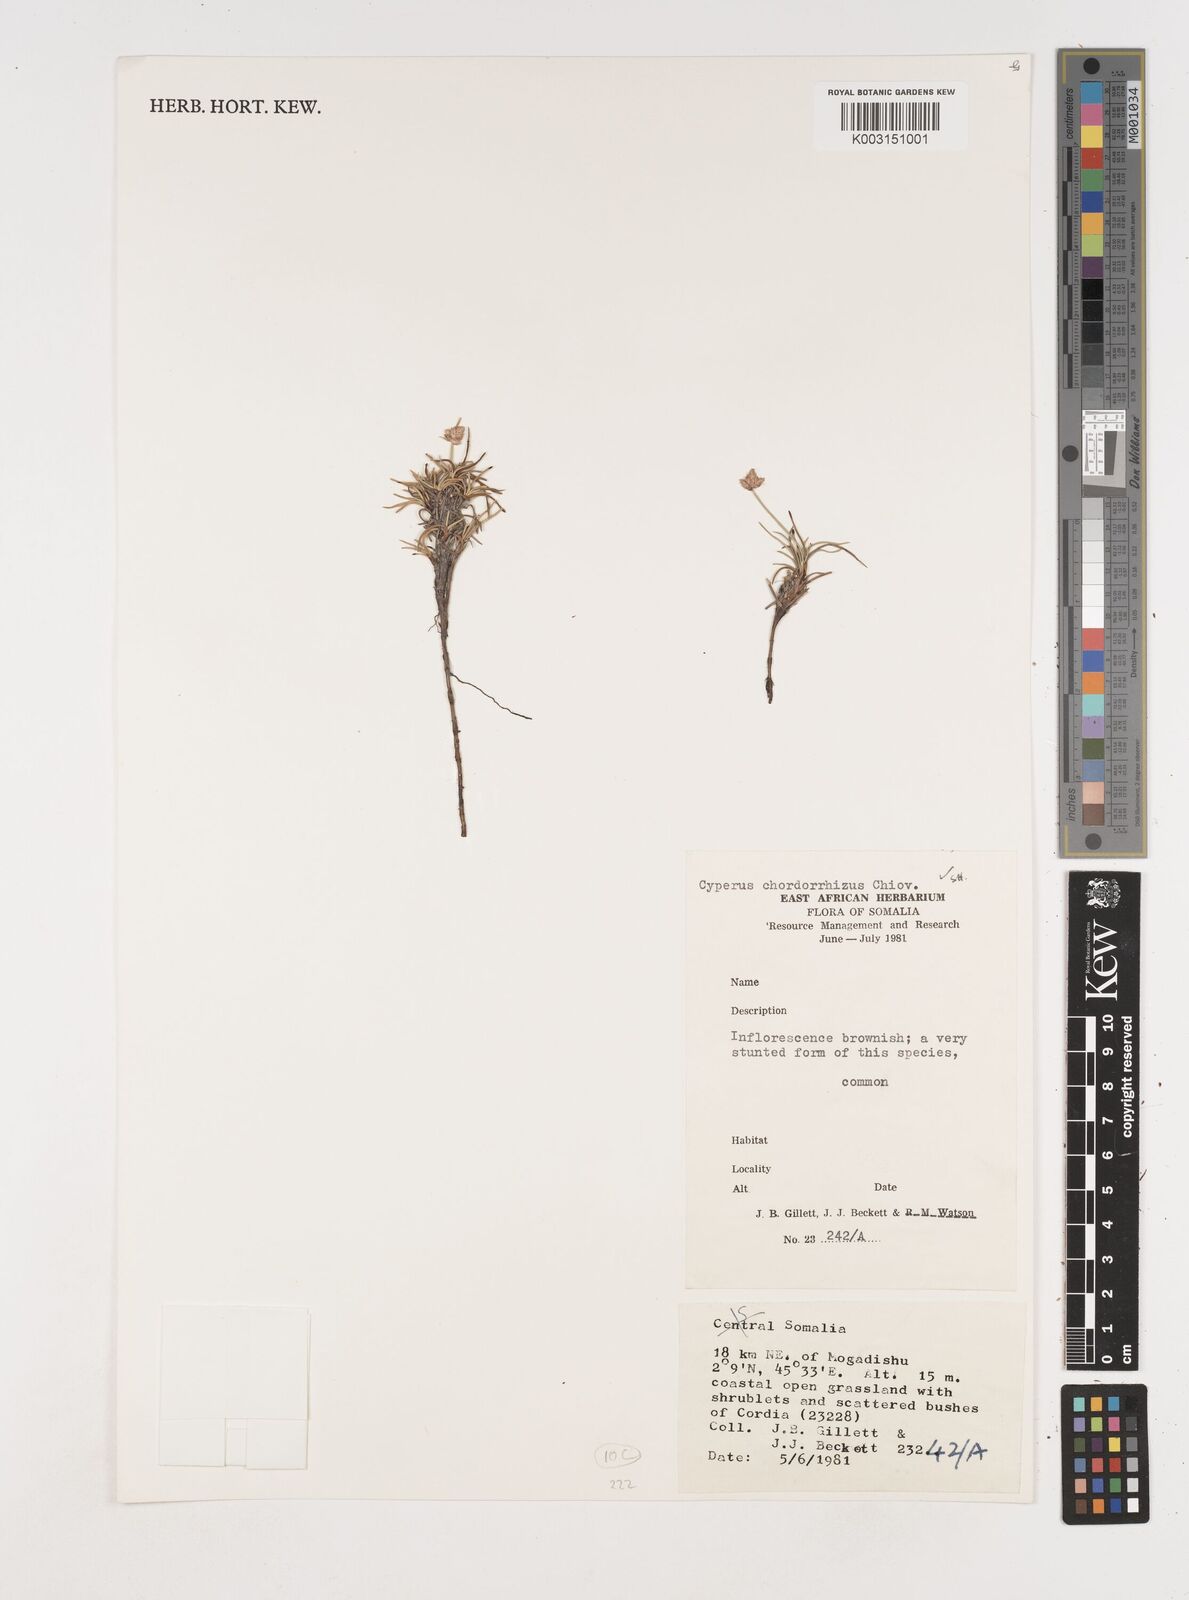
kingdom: Plantae
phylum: Tracheophyta
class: Liliopsida
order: Poales
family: Cyperaceae
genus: Cyperus
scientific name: Cyperus chordorrhizus
